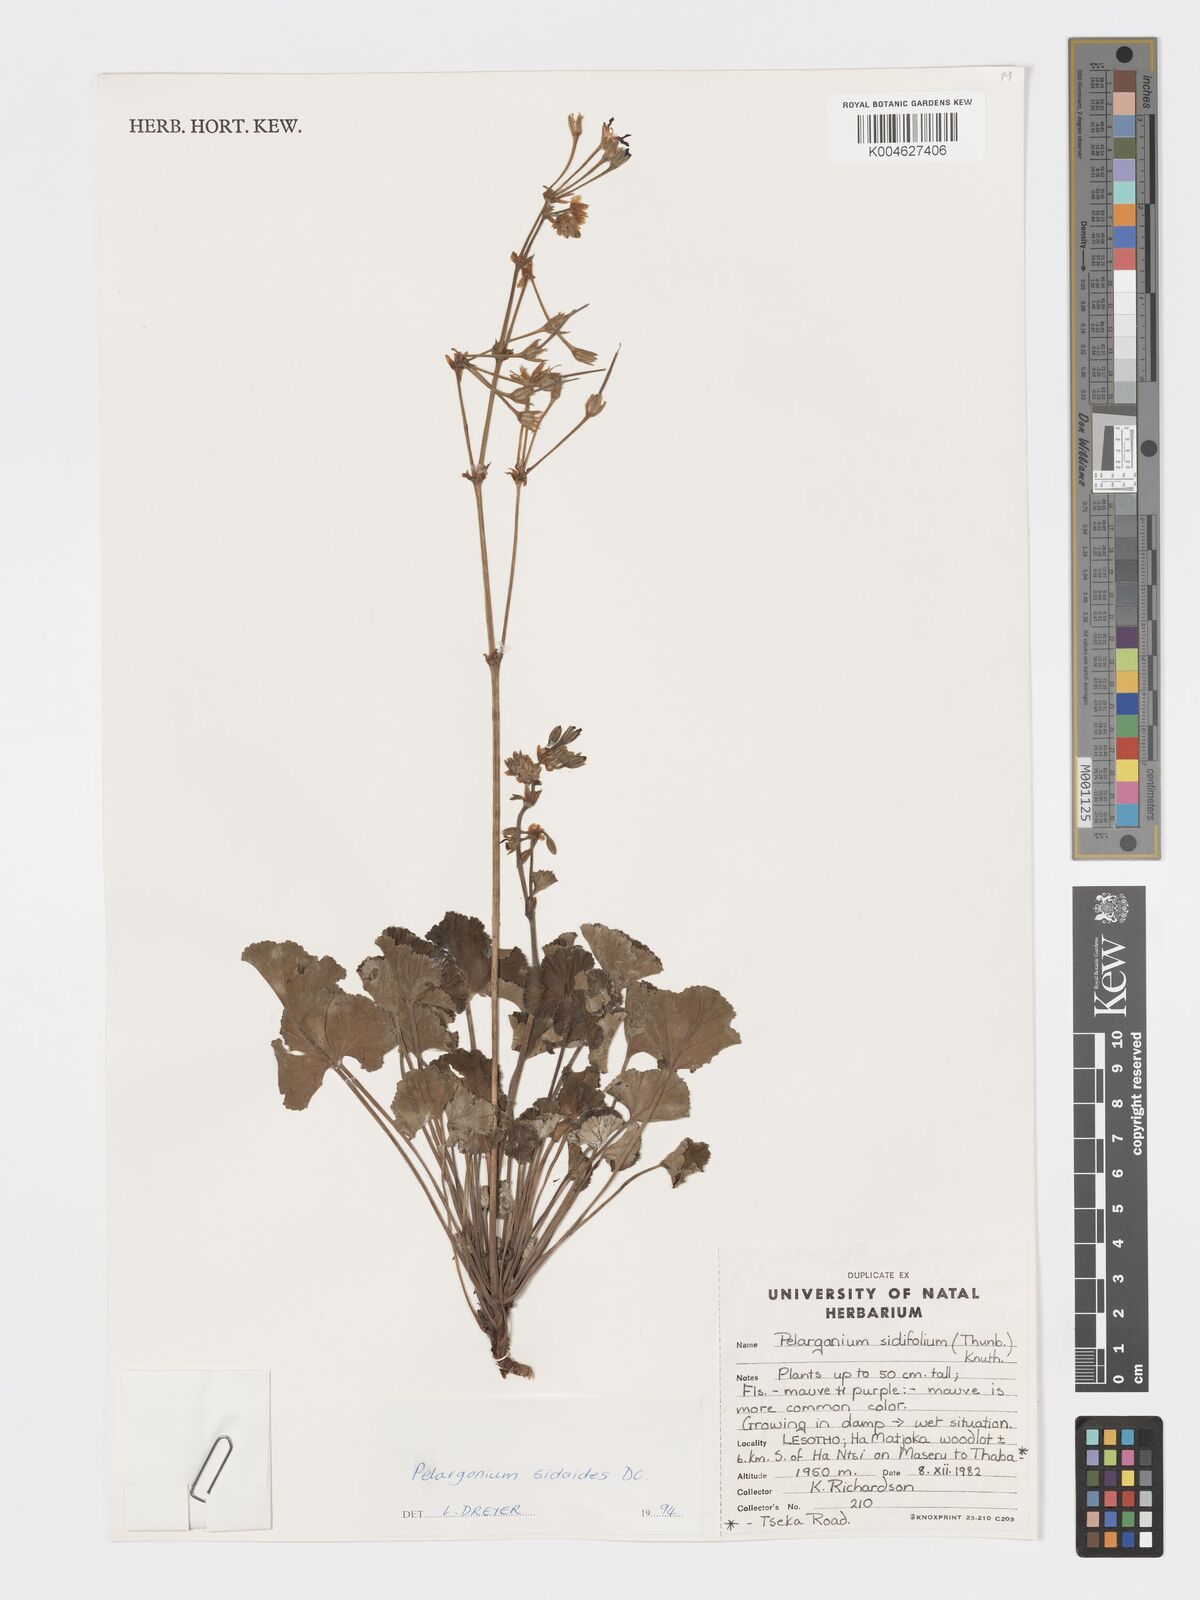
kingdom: Plantae
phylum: Tracheophyta
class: Magnoliopsida
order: Geraniales
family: Geraniaceae
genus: Pelargonium
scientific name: Pelargonium sidoides
